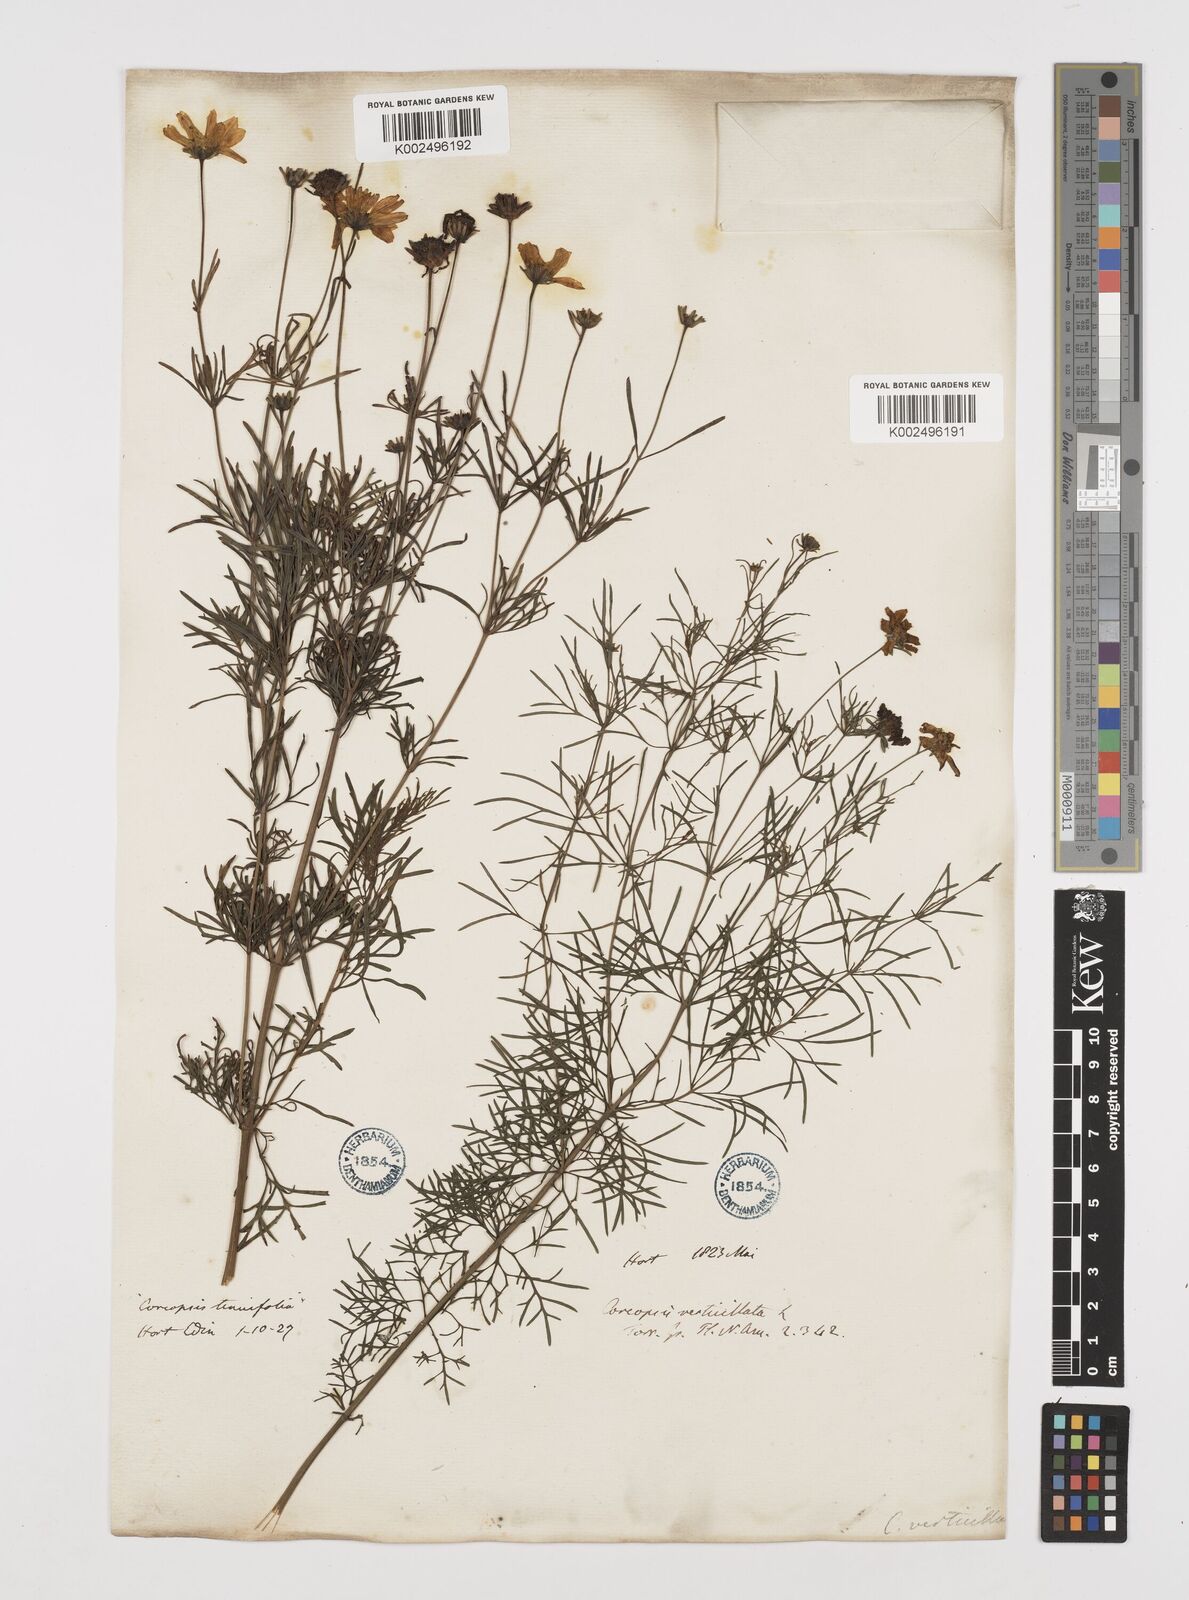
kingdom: Plantae
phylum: Tracheophyta
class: Magnoliopsida
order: Asterales
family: Asteraceae
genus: Coreopsis
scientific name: Coreopsis verticillata
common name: Whorled tickseed
